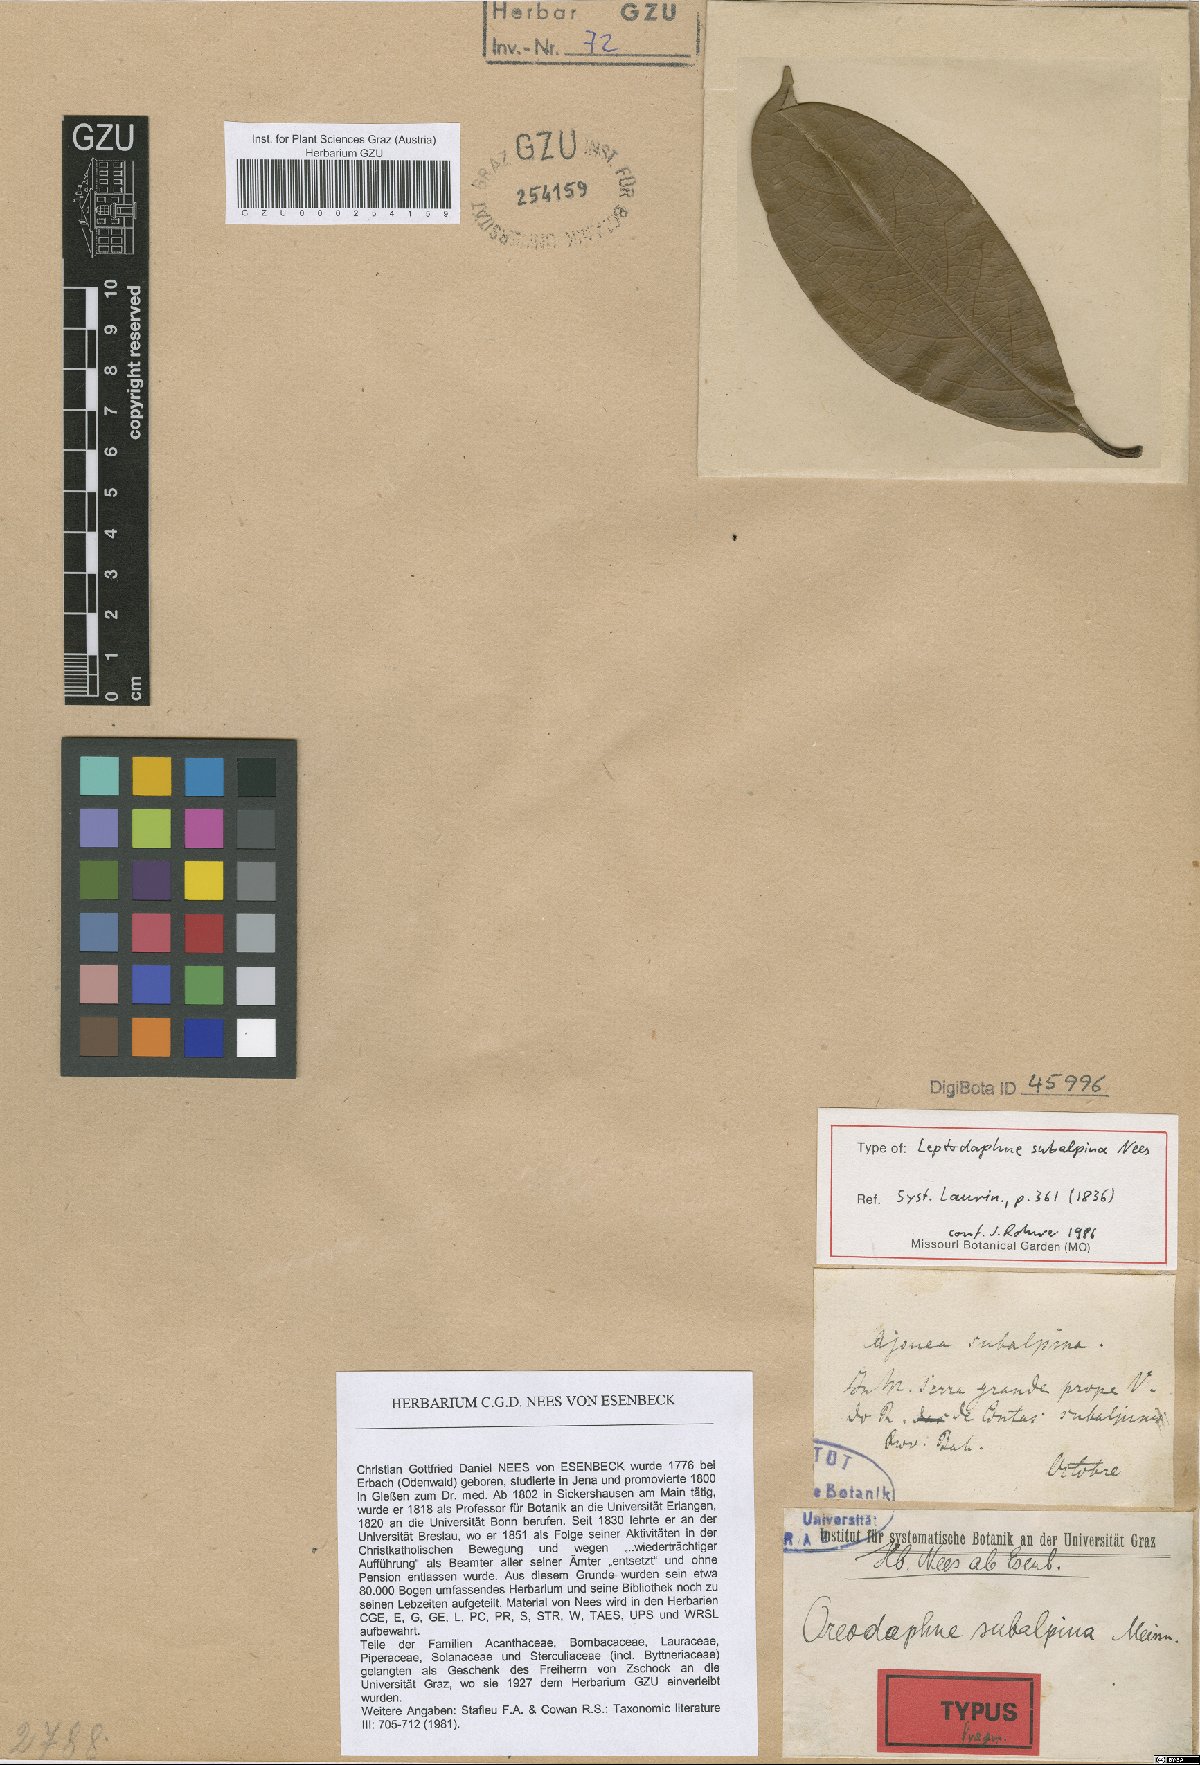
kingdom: Plantae
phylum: Tracheophyta
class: Magnoliopsida
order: Laurales
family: Lauraceae
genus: Ocotea
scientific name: Ocotea leptobotra
